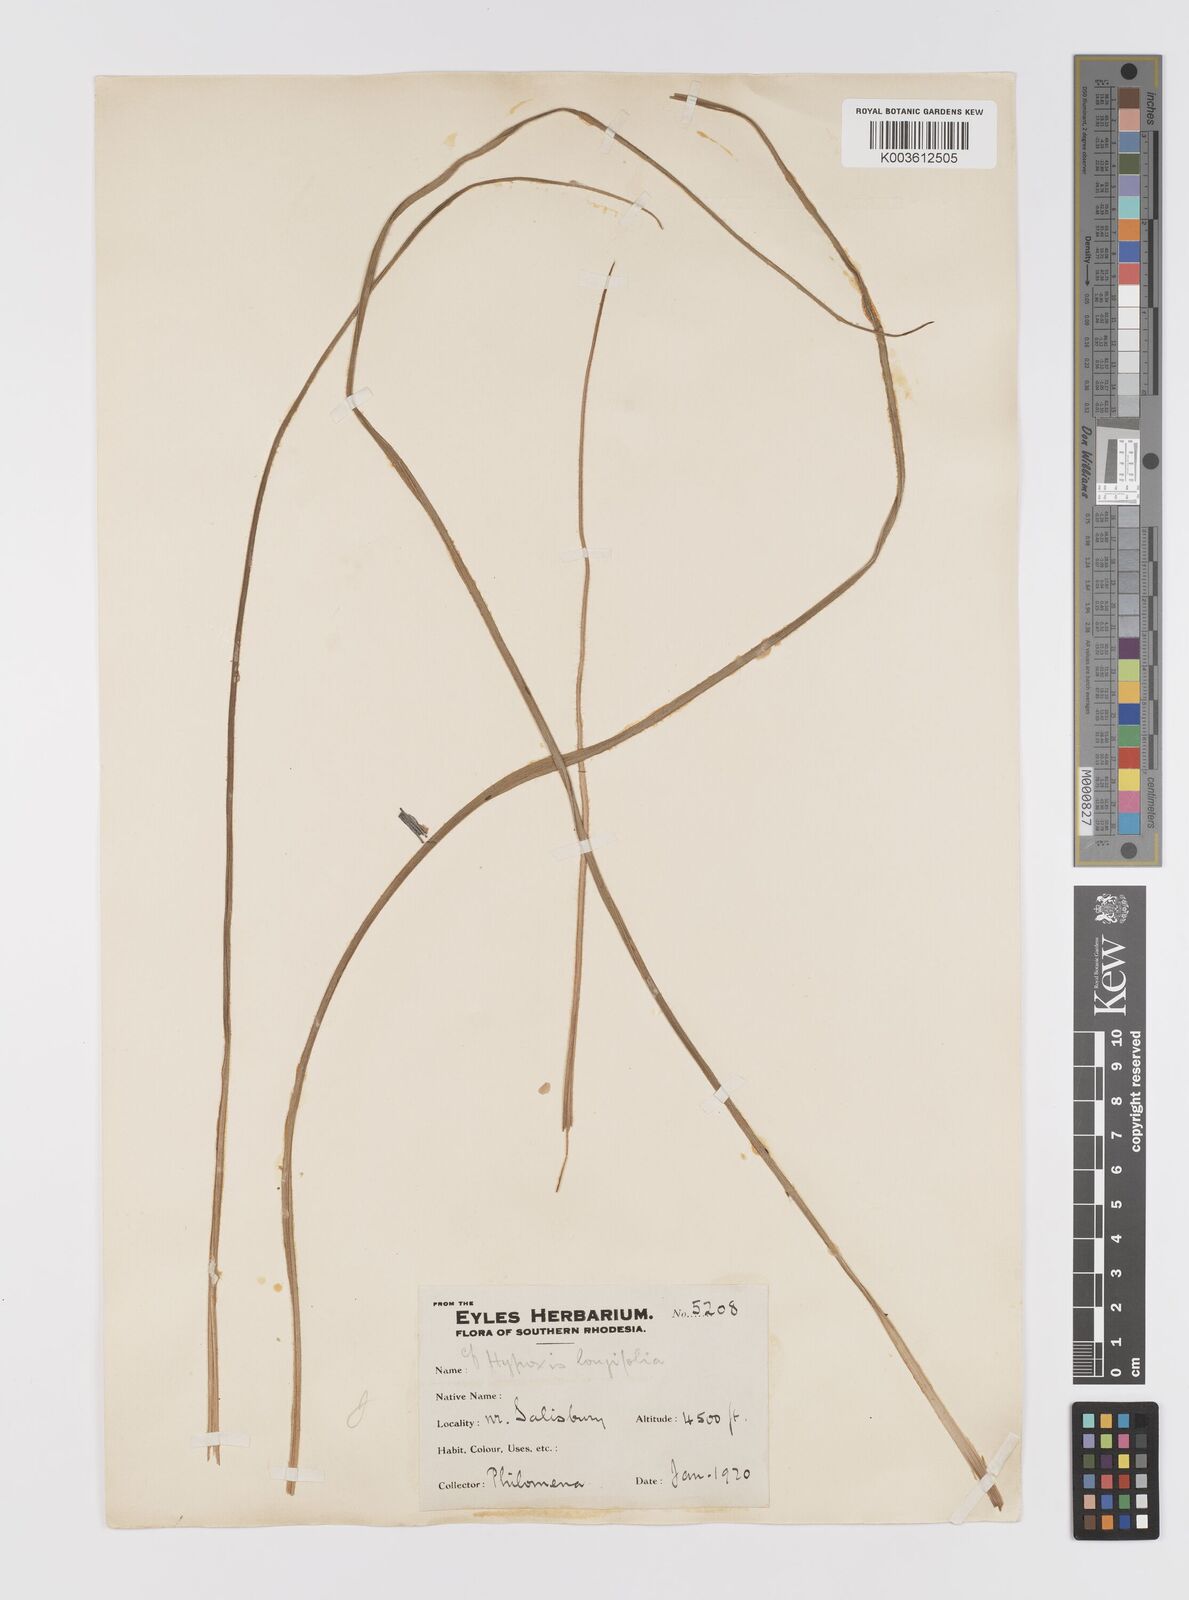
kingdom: Plantae
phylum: Tracheophyta
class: Liliopsida
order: Asparagales
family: Hypoxidaceae
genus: Hypoxis
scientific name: Hypoxis nyasica
